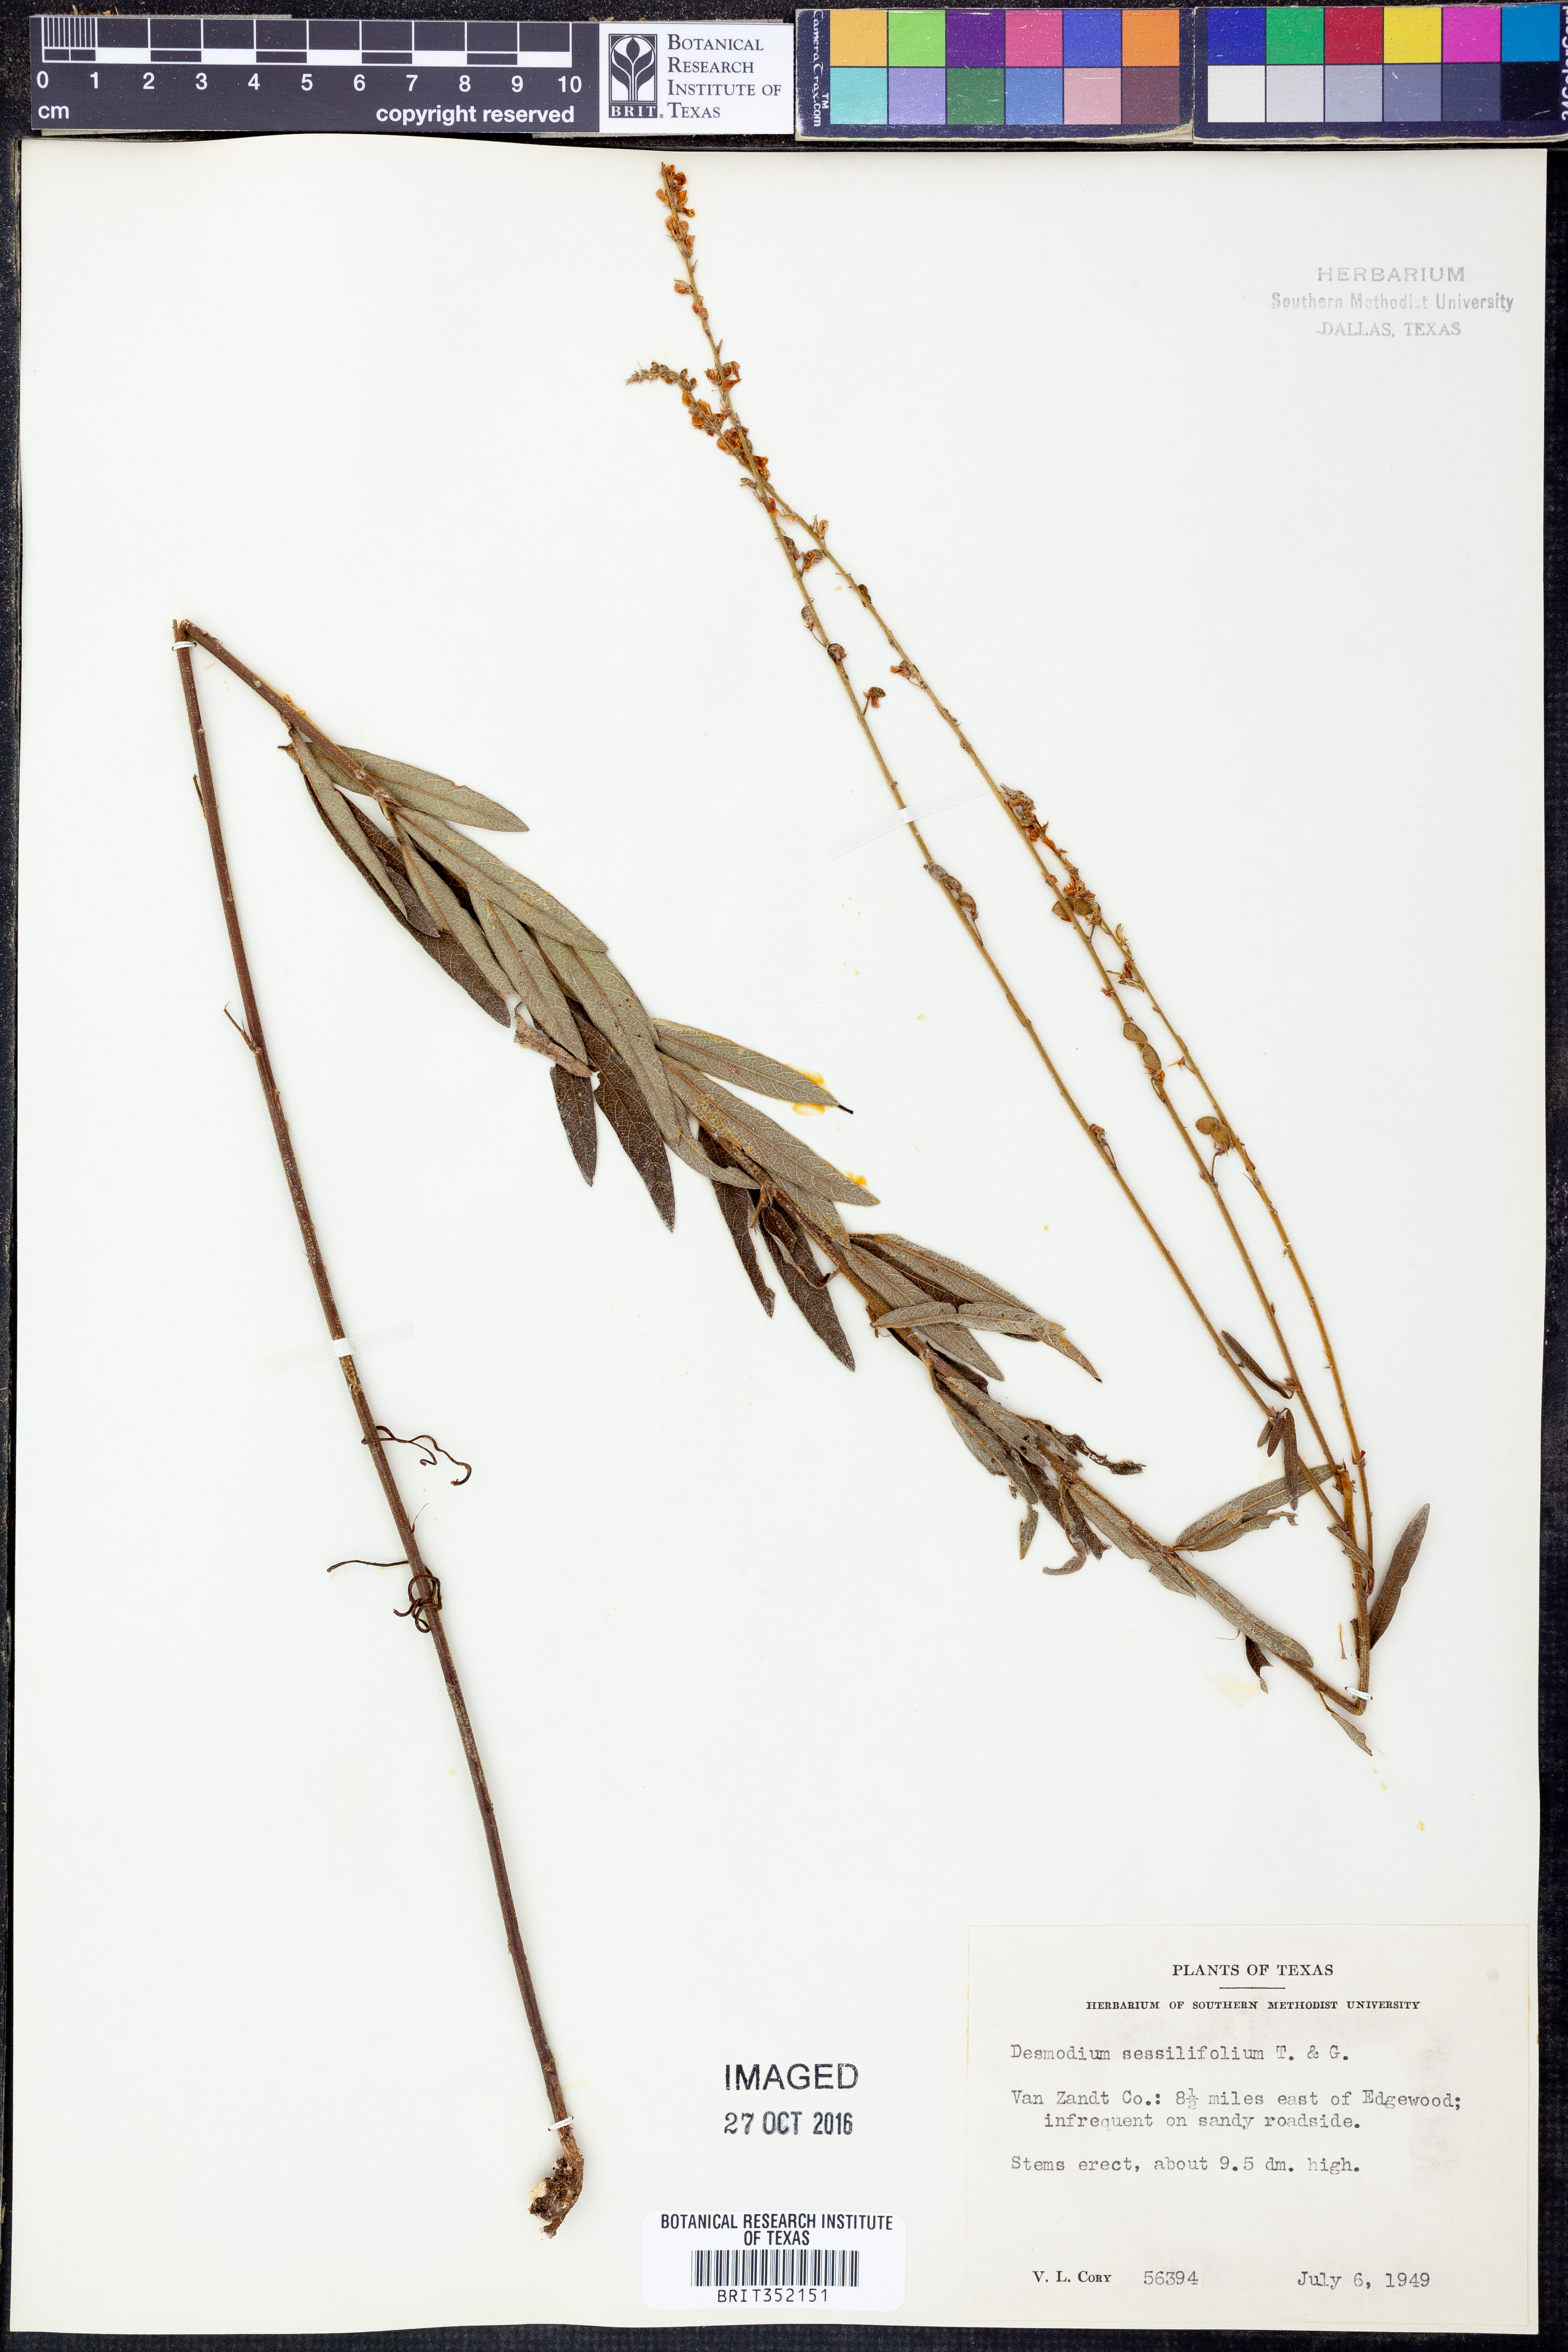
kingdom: Plantae
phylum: Tracheophyta
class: Magnoliopsida
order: Fabales
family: Fabaceae
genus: Desmodium
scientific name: Desmodium sessilifolium
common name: Sessile tick-clover
